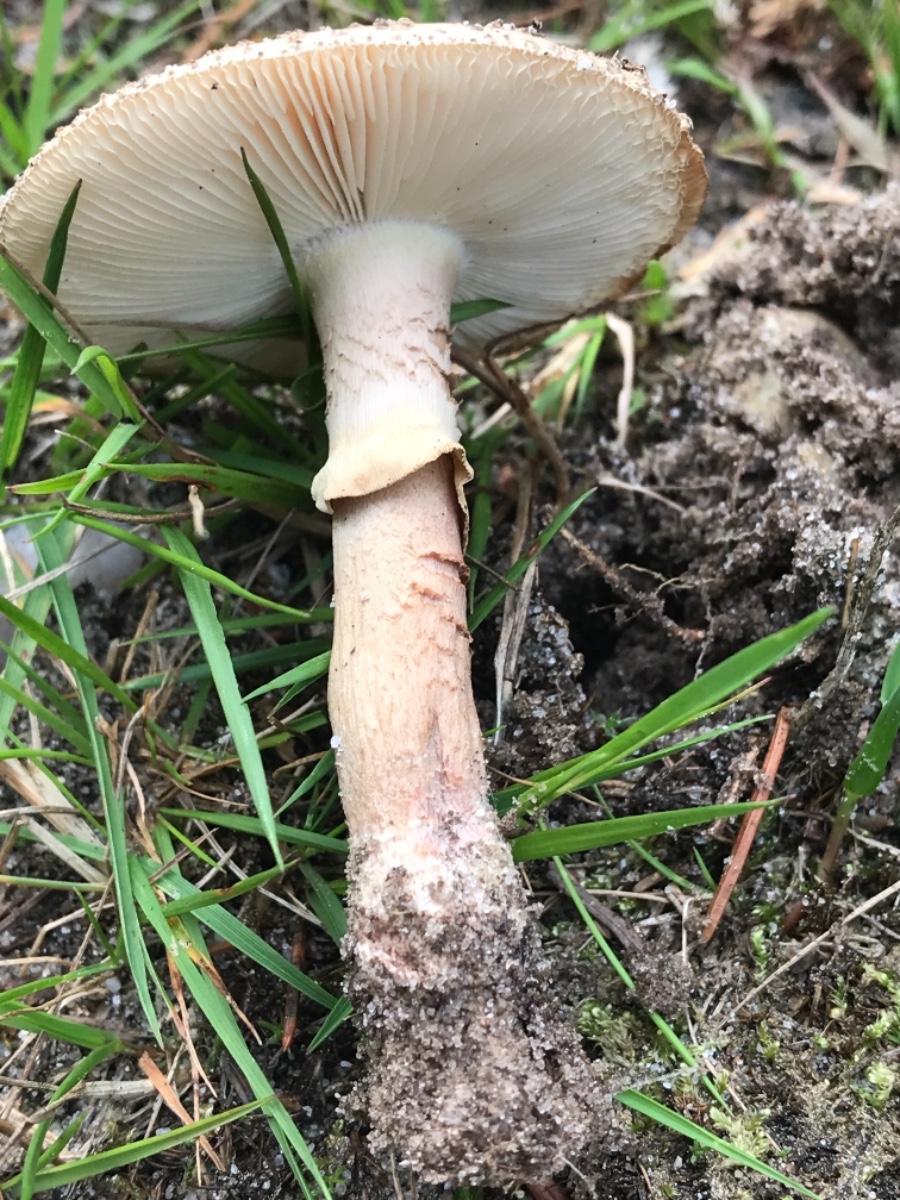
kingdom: Fungi
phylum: Basidiomycota
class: Agaricomycetes
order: Agaricales
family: Amanitaceae
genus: Amanita
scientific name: Amanita rubescens
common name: rødmende fluesvamp
